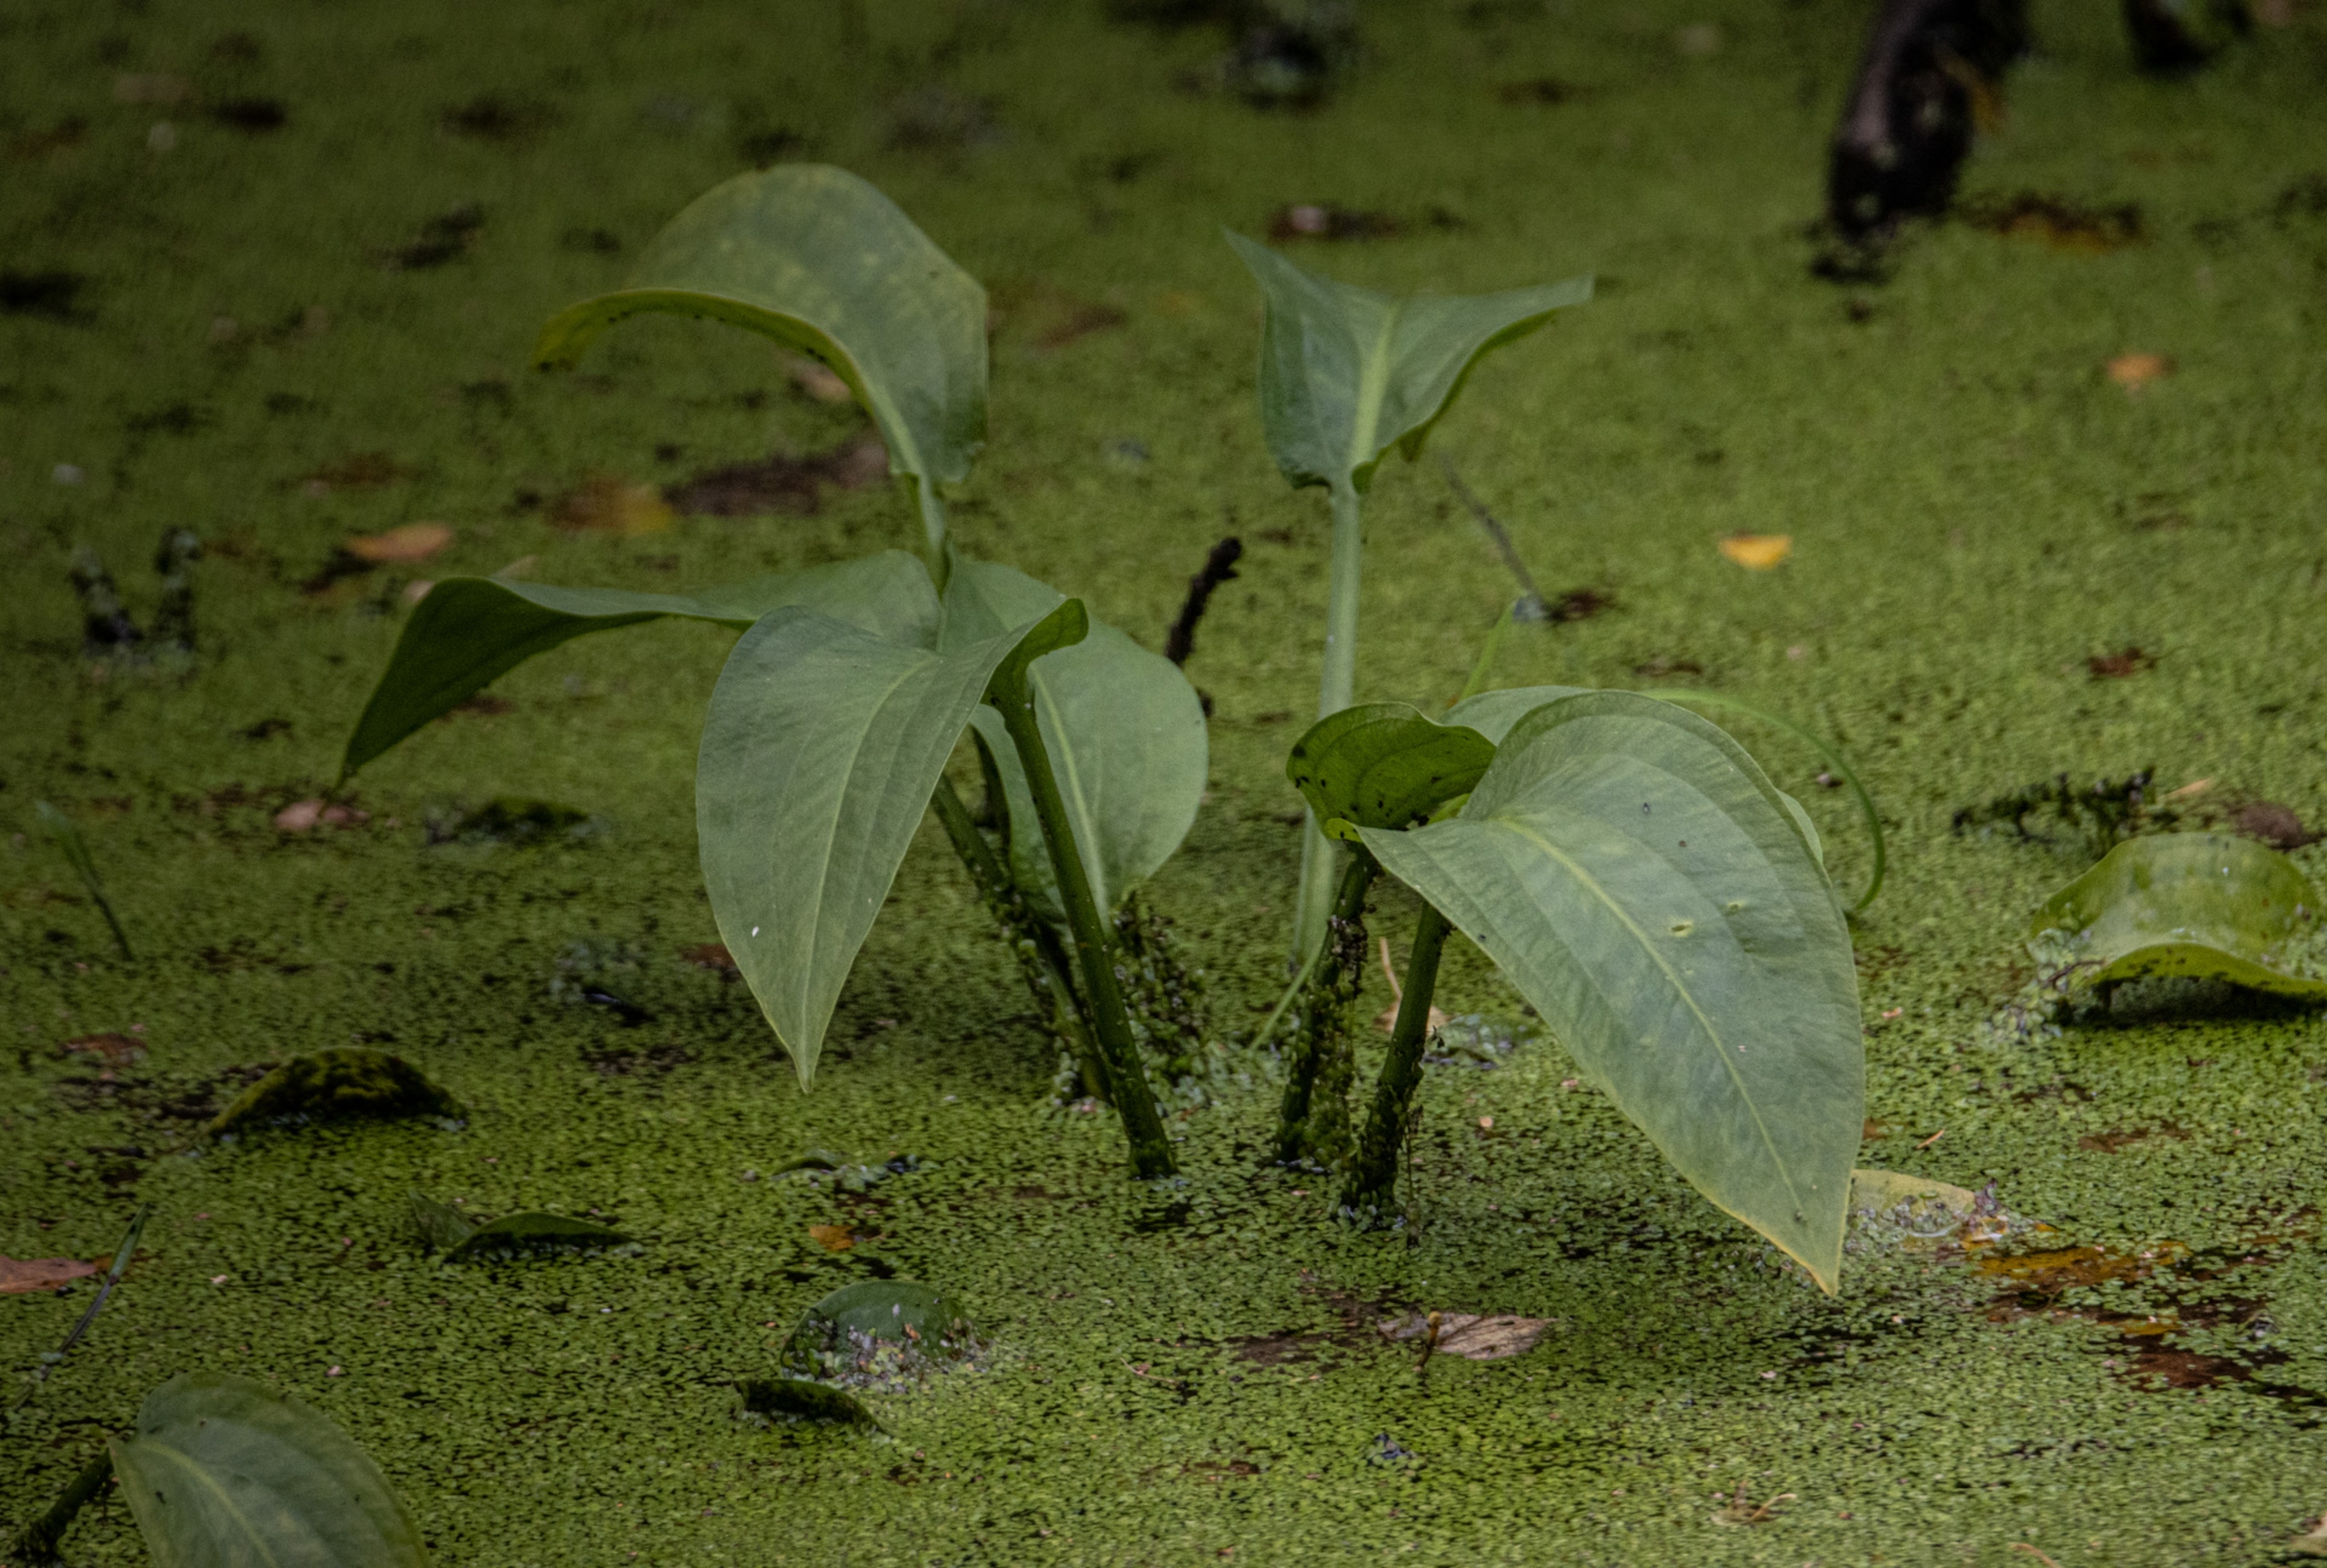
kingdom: Plantae
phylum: Tracheophyta
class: Liliopsida
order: Alismatales
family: Alismataceae
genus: Alisma
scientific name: Alisma plantago-aquatica
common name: Vejbred-skeblad
